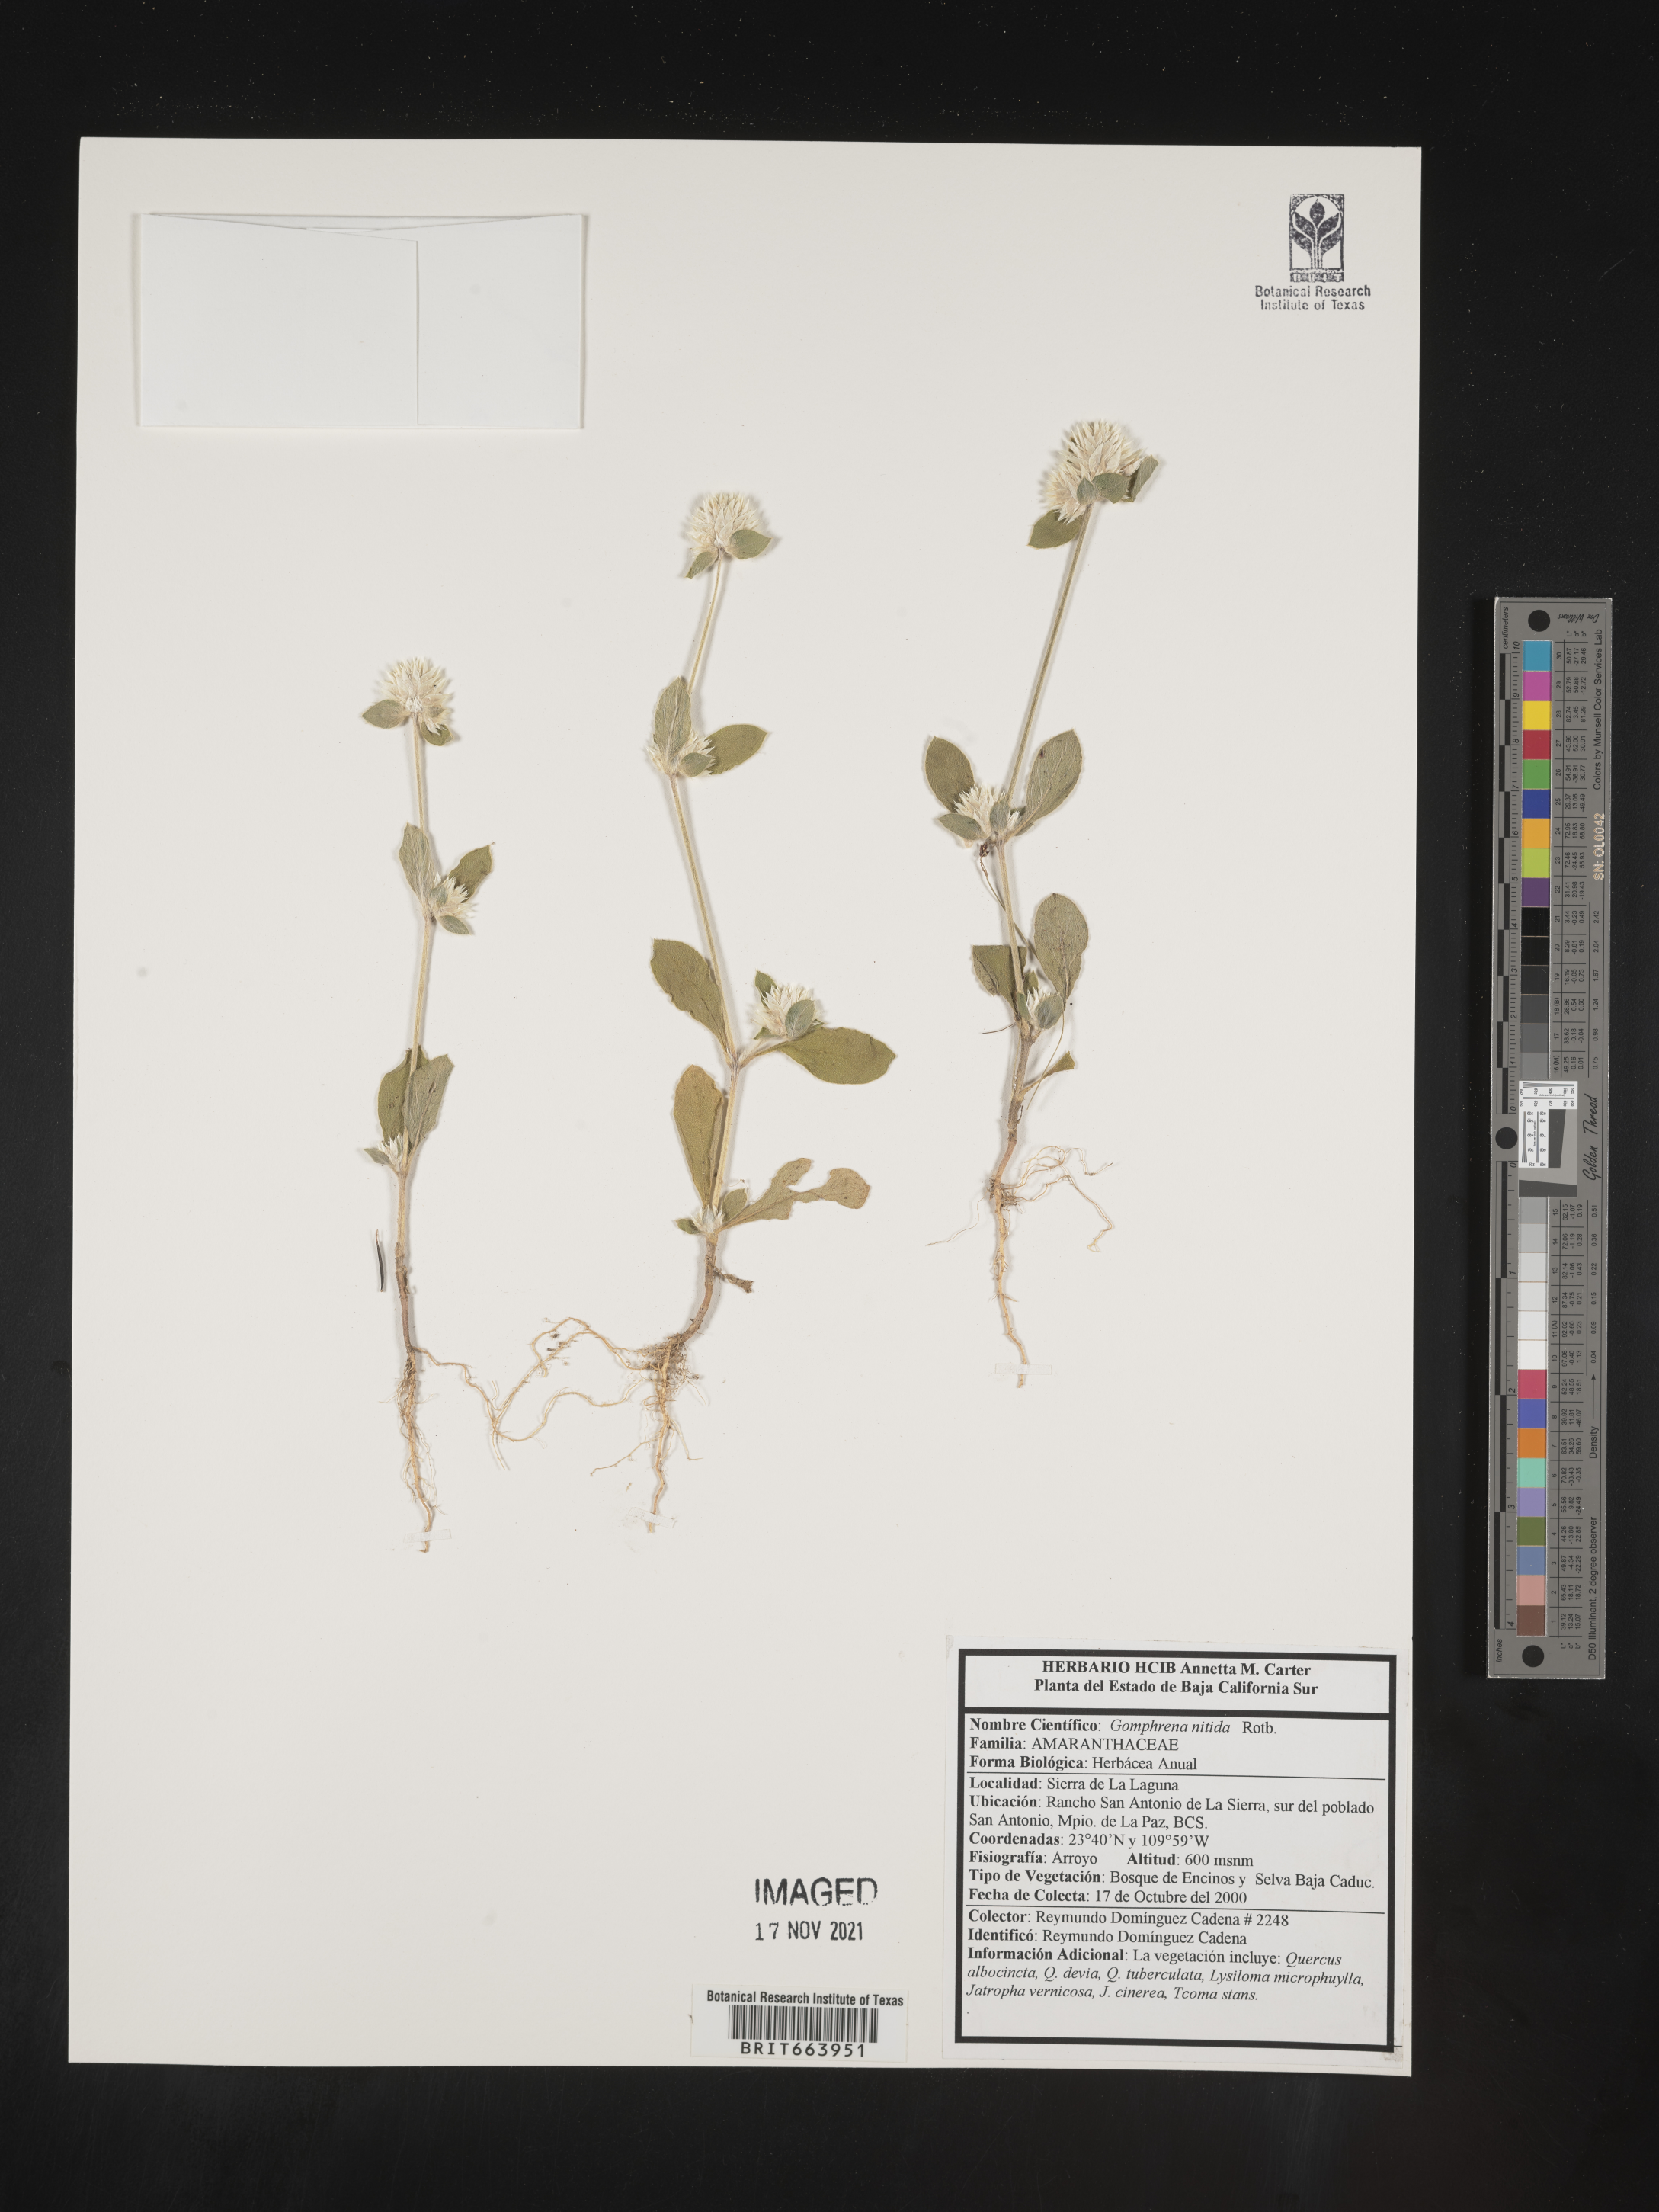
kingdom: Plantae
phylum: Tracheophyta
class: Magnoliopsida
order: Caryophyllales
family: Amaranthaceae
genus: Gomphrena
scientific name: Gomphrena
